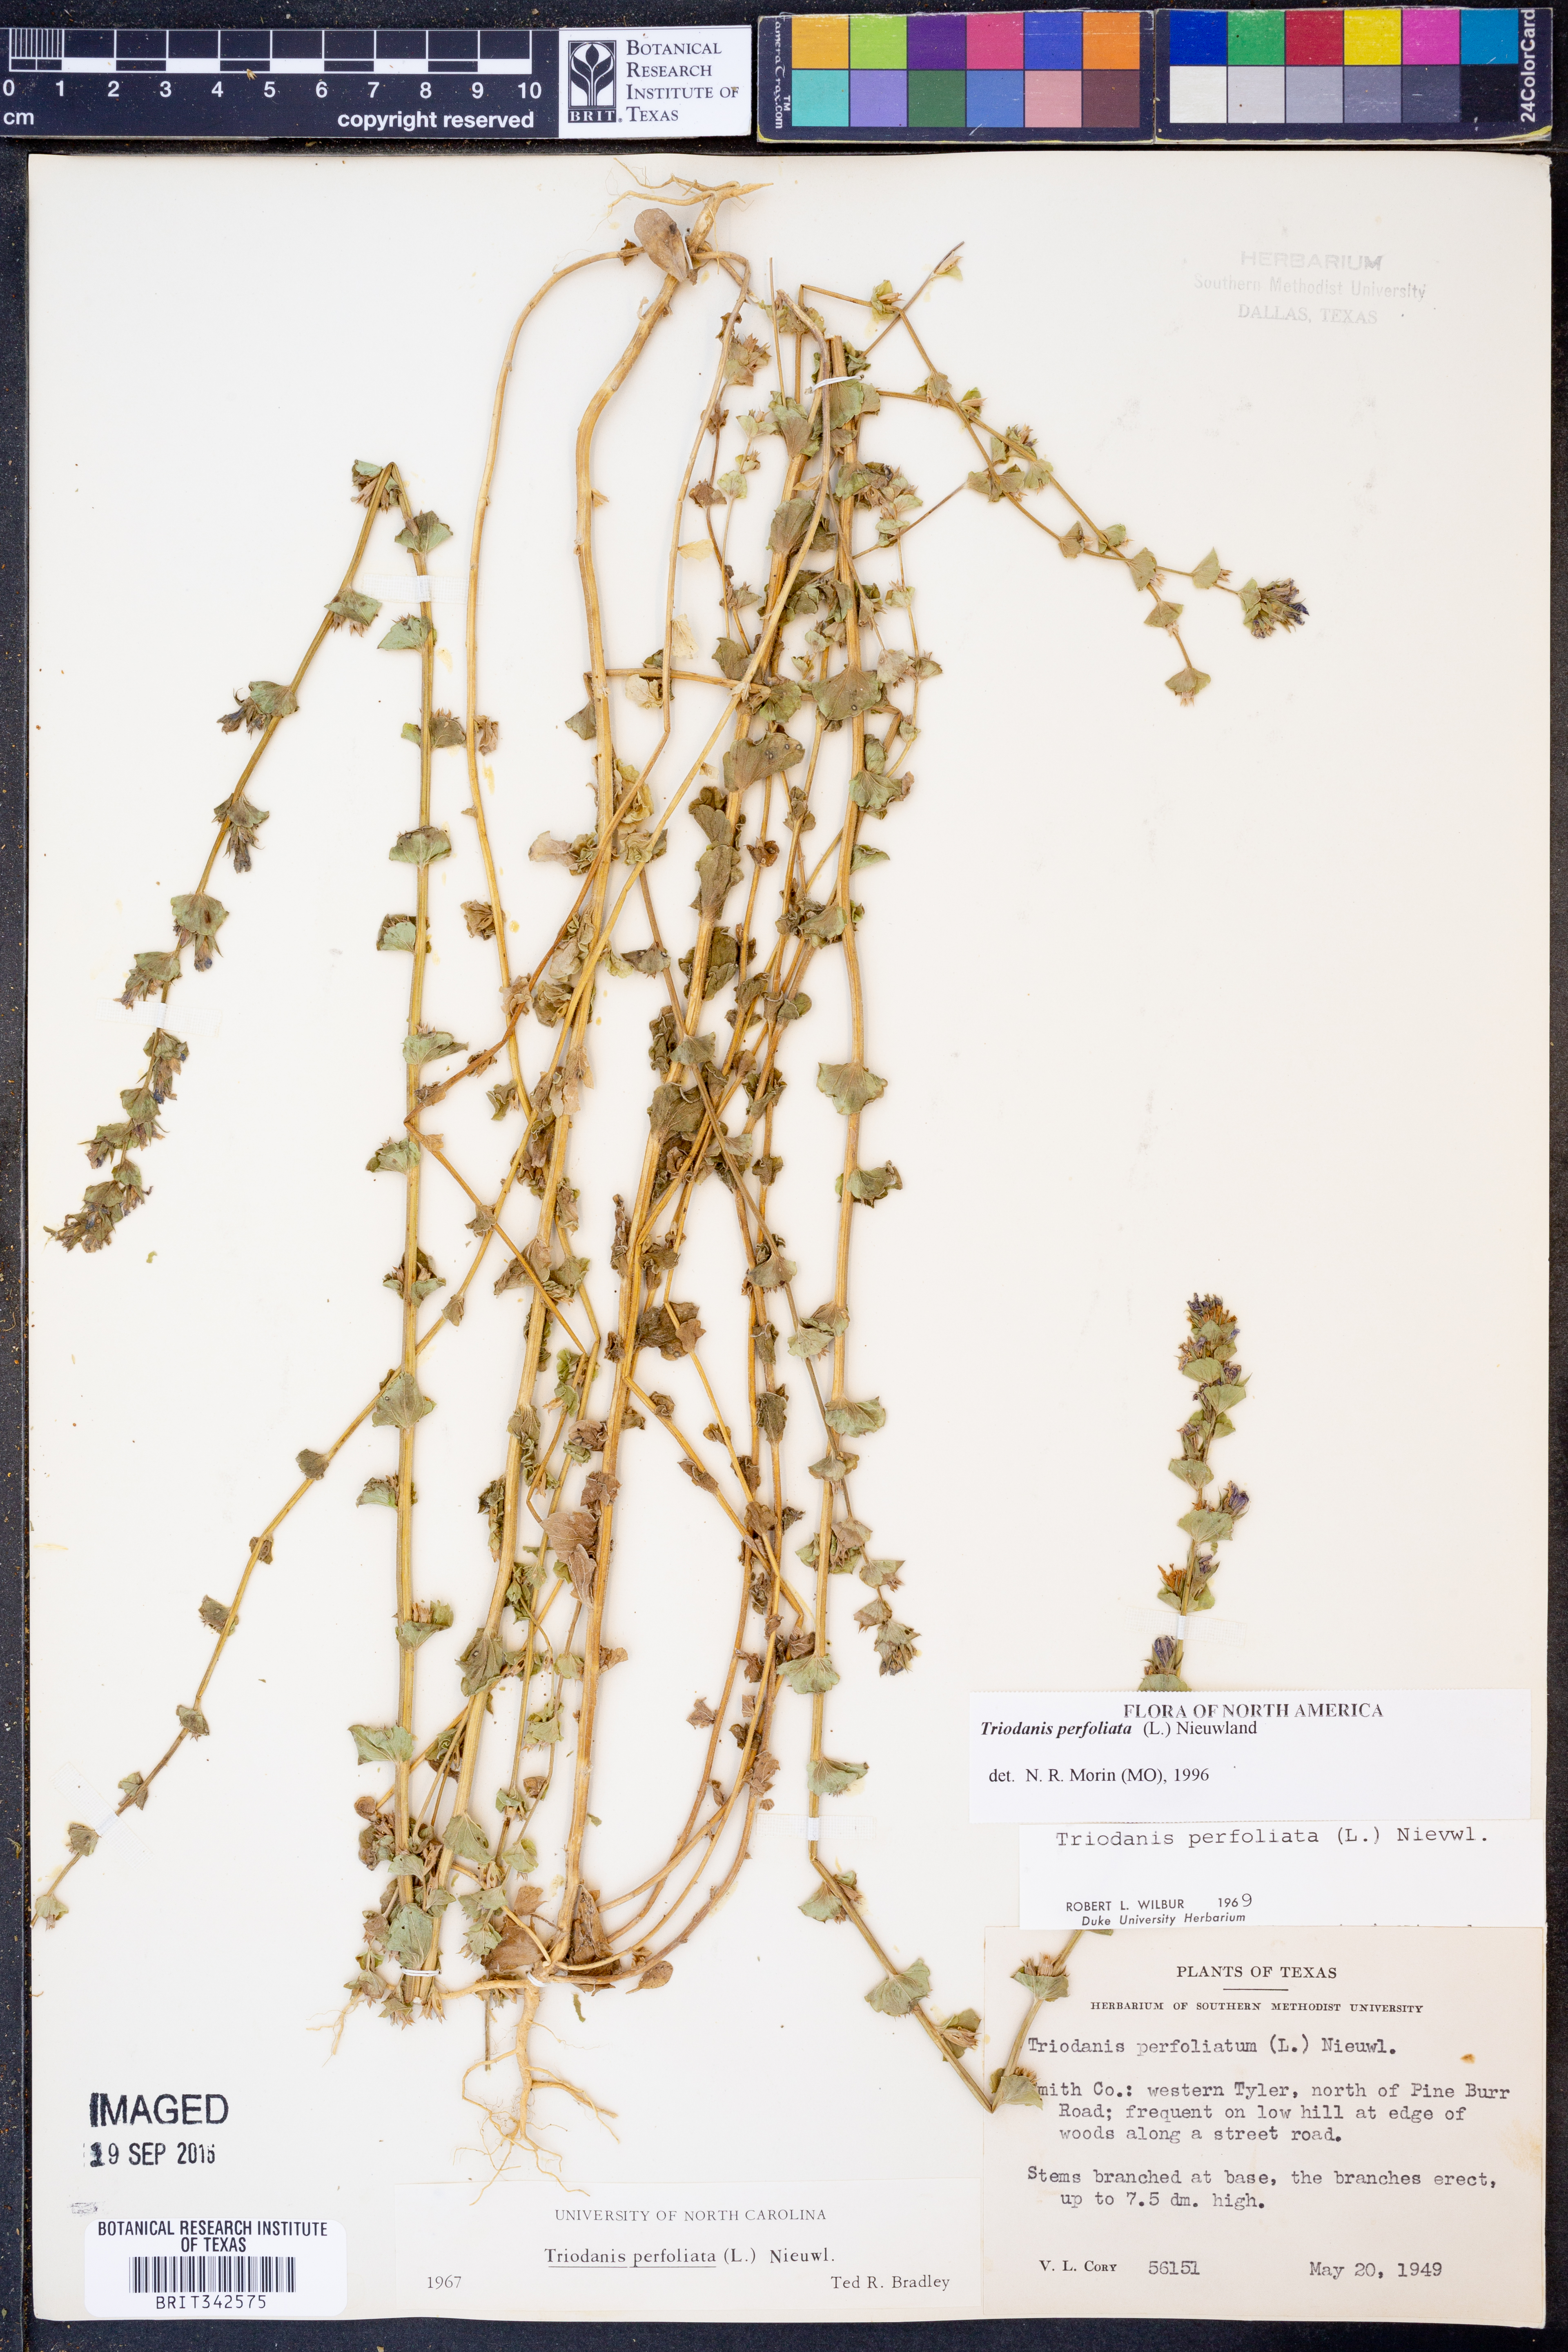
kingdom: Plantae
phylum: Tracheophyta
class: Magnoliopsida
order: Asterales
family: Campanulaceae
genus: Triodanis
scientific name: Triodanis perfoliata
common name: Clasping venus' looking-glass
